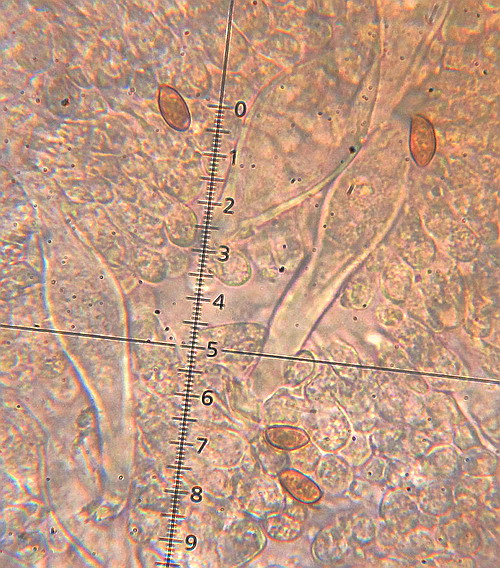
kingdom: Fungi
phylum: Basidiomycota
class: Agaricomycetes
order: Agaricales
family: Inocybaceae
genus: Inocybe
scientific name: Inocybe sindonia
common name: bleg trævlhat
